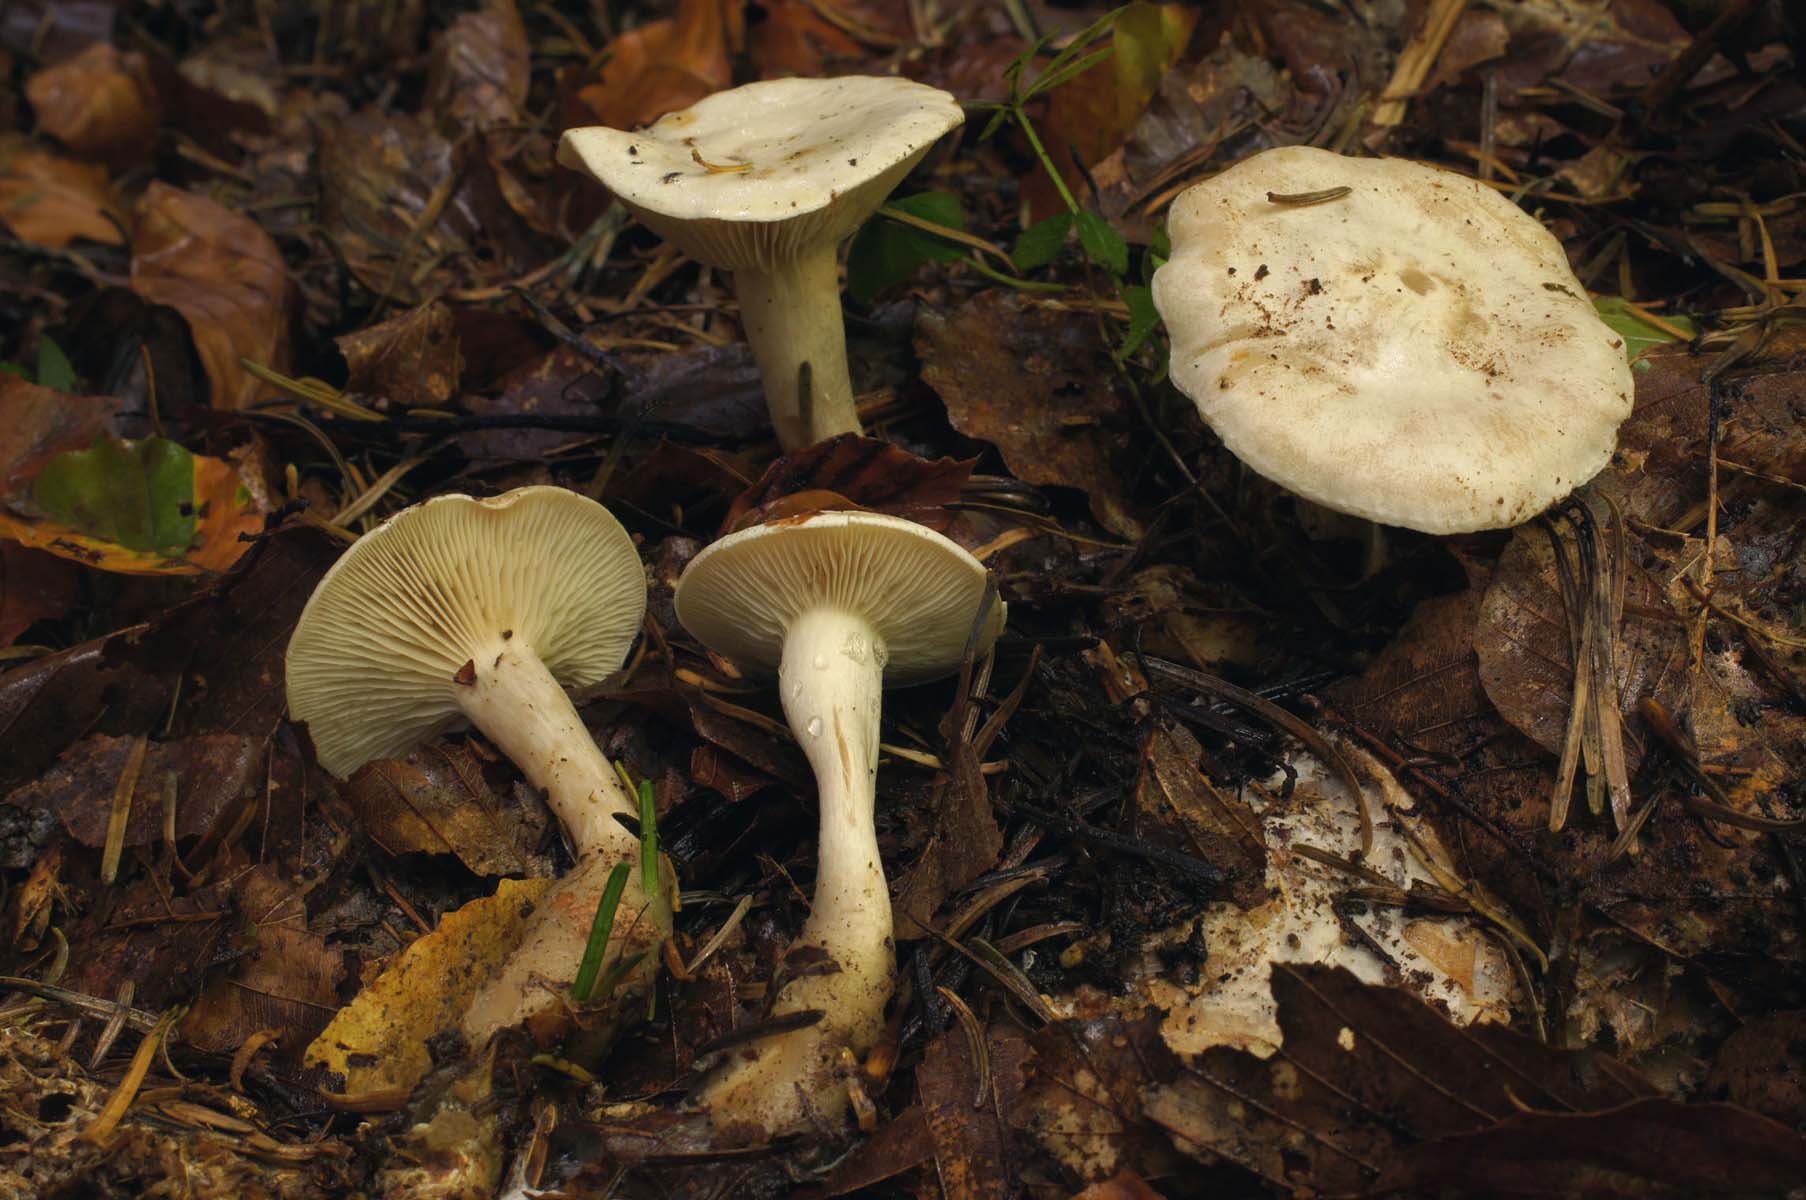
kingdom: Fungi
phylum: Basidiomycota
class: Agaricomycetes
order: Agaricales
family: Tricholomataceae
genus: Clitocybe
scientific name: Clitocybe phyllophila
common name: løv-tragthat
